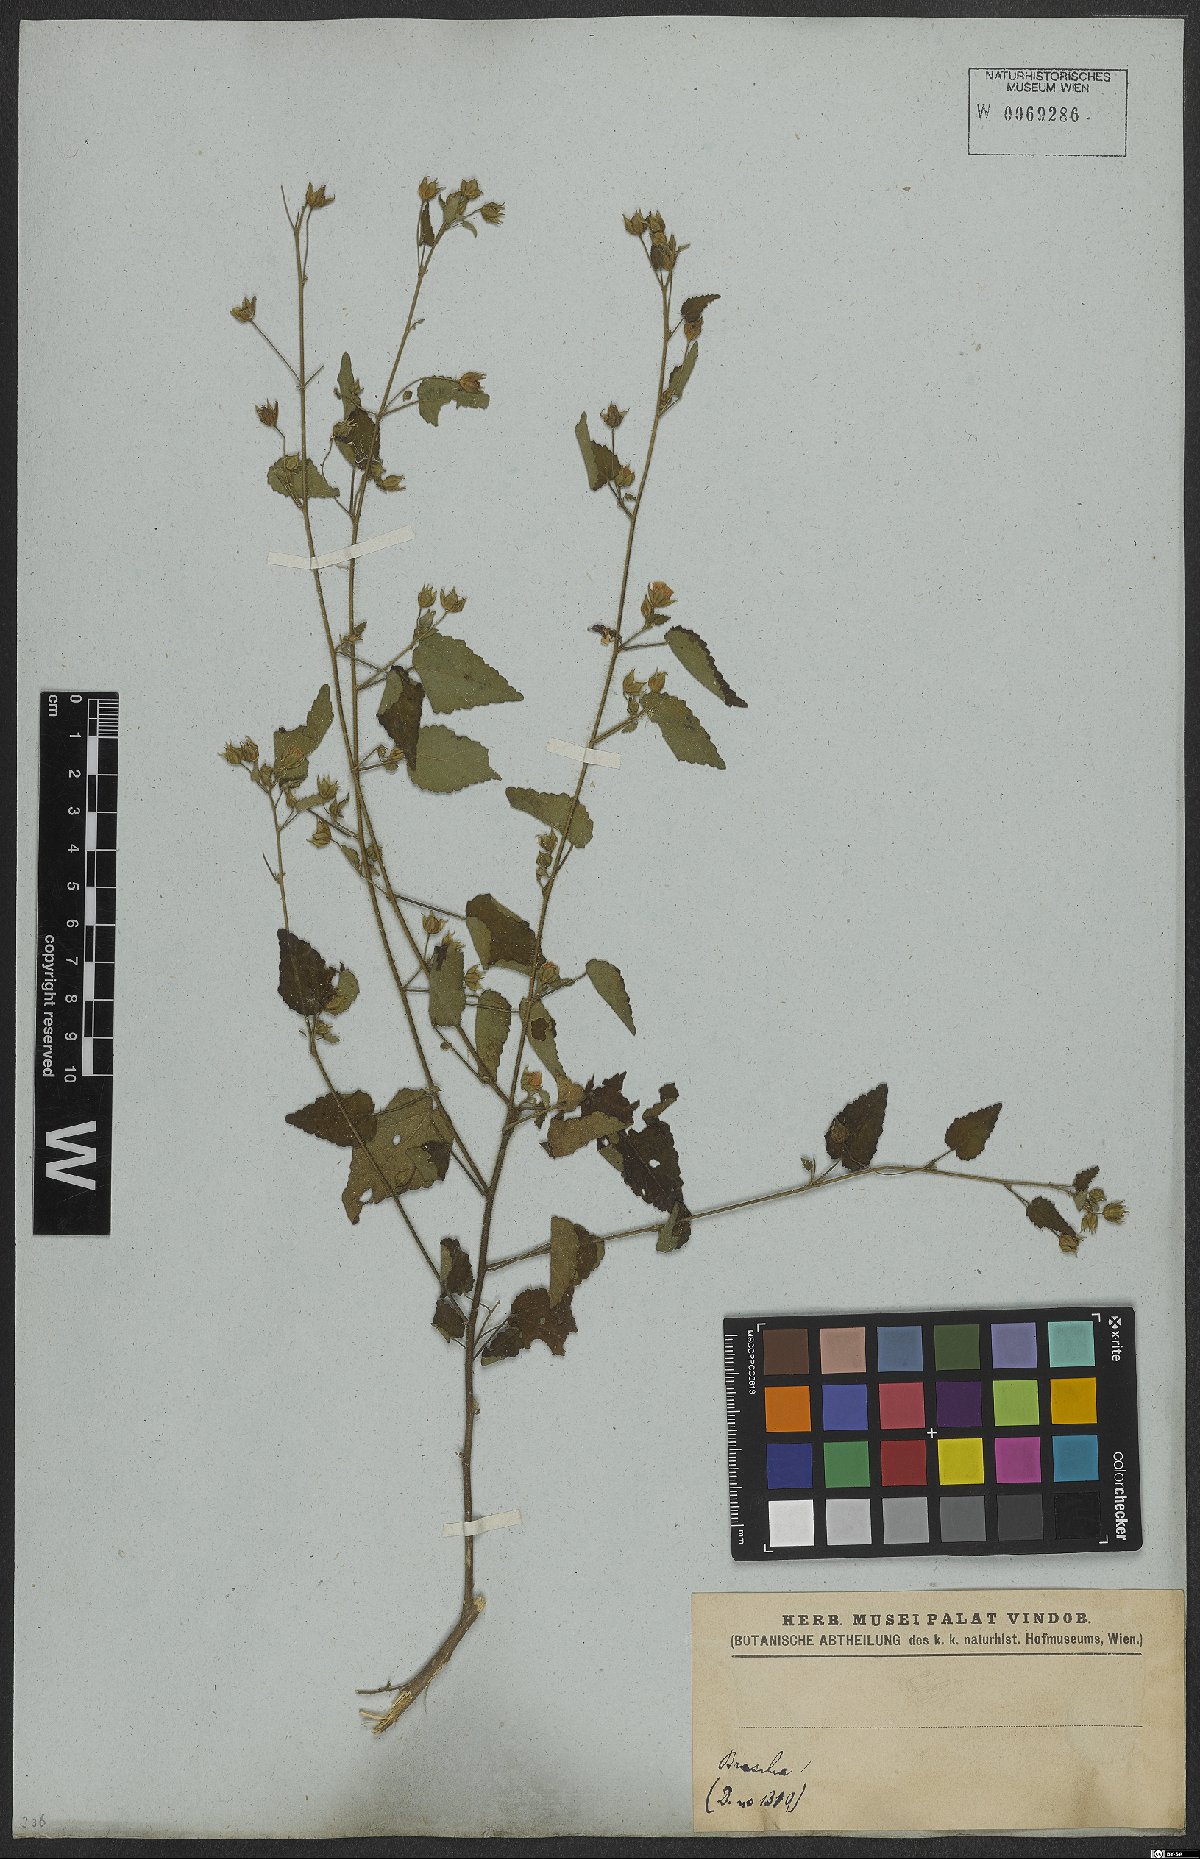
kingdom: Plantae
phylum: Tracheophyta
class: Magnoliopsida
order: Malvales
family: Malvaceae
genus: Sida
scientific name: Sida glabra
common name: Smooth fanpetals
